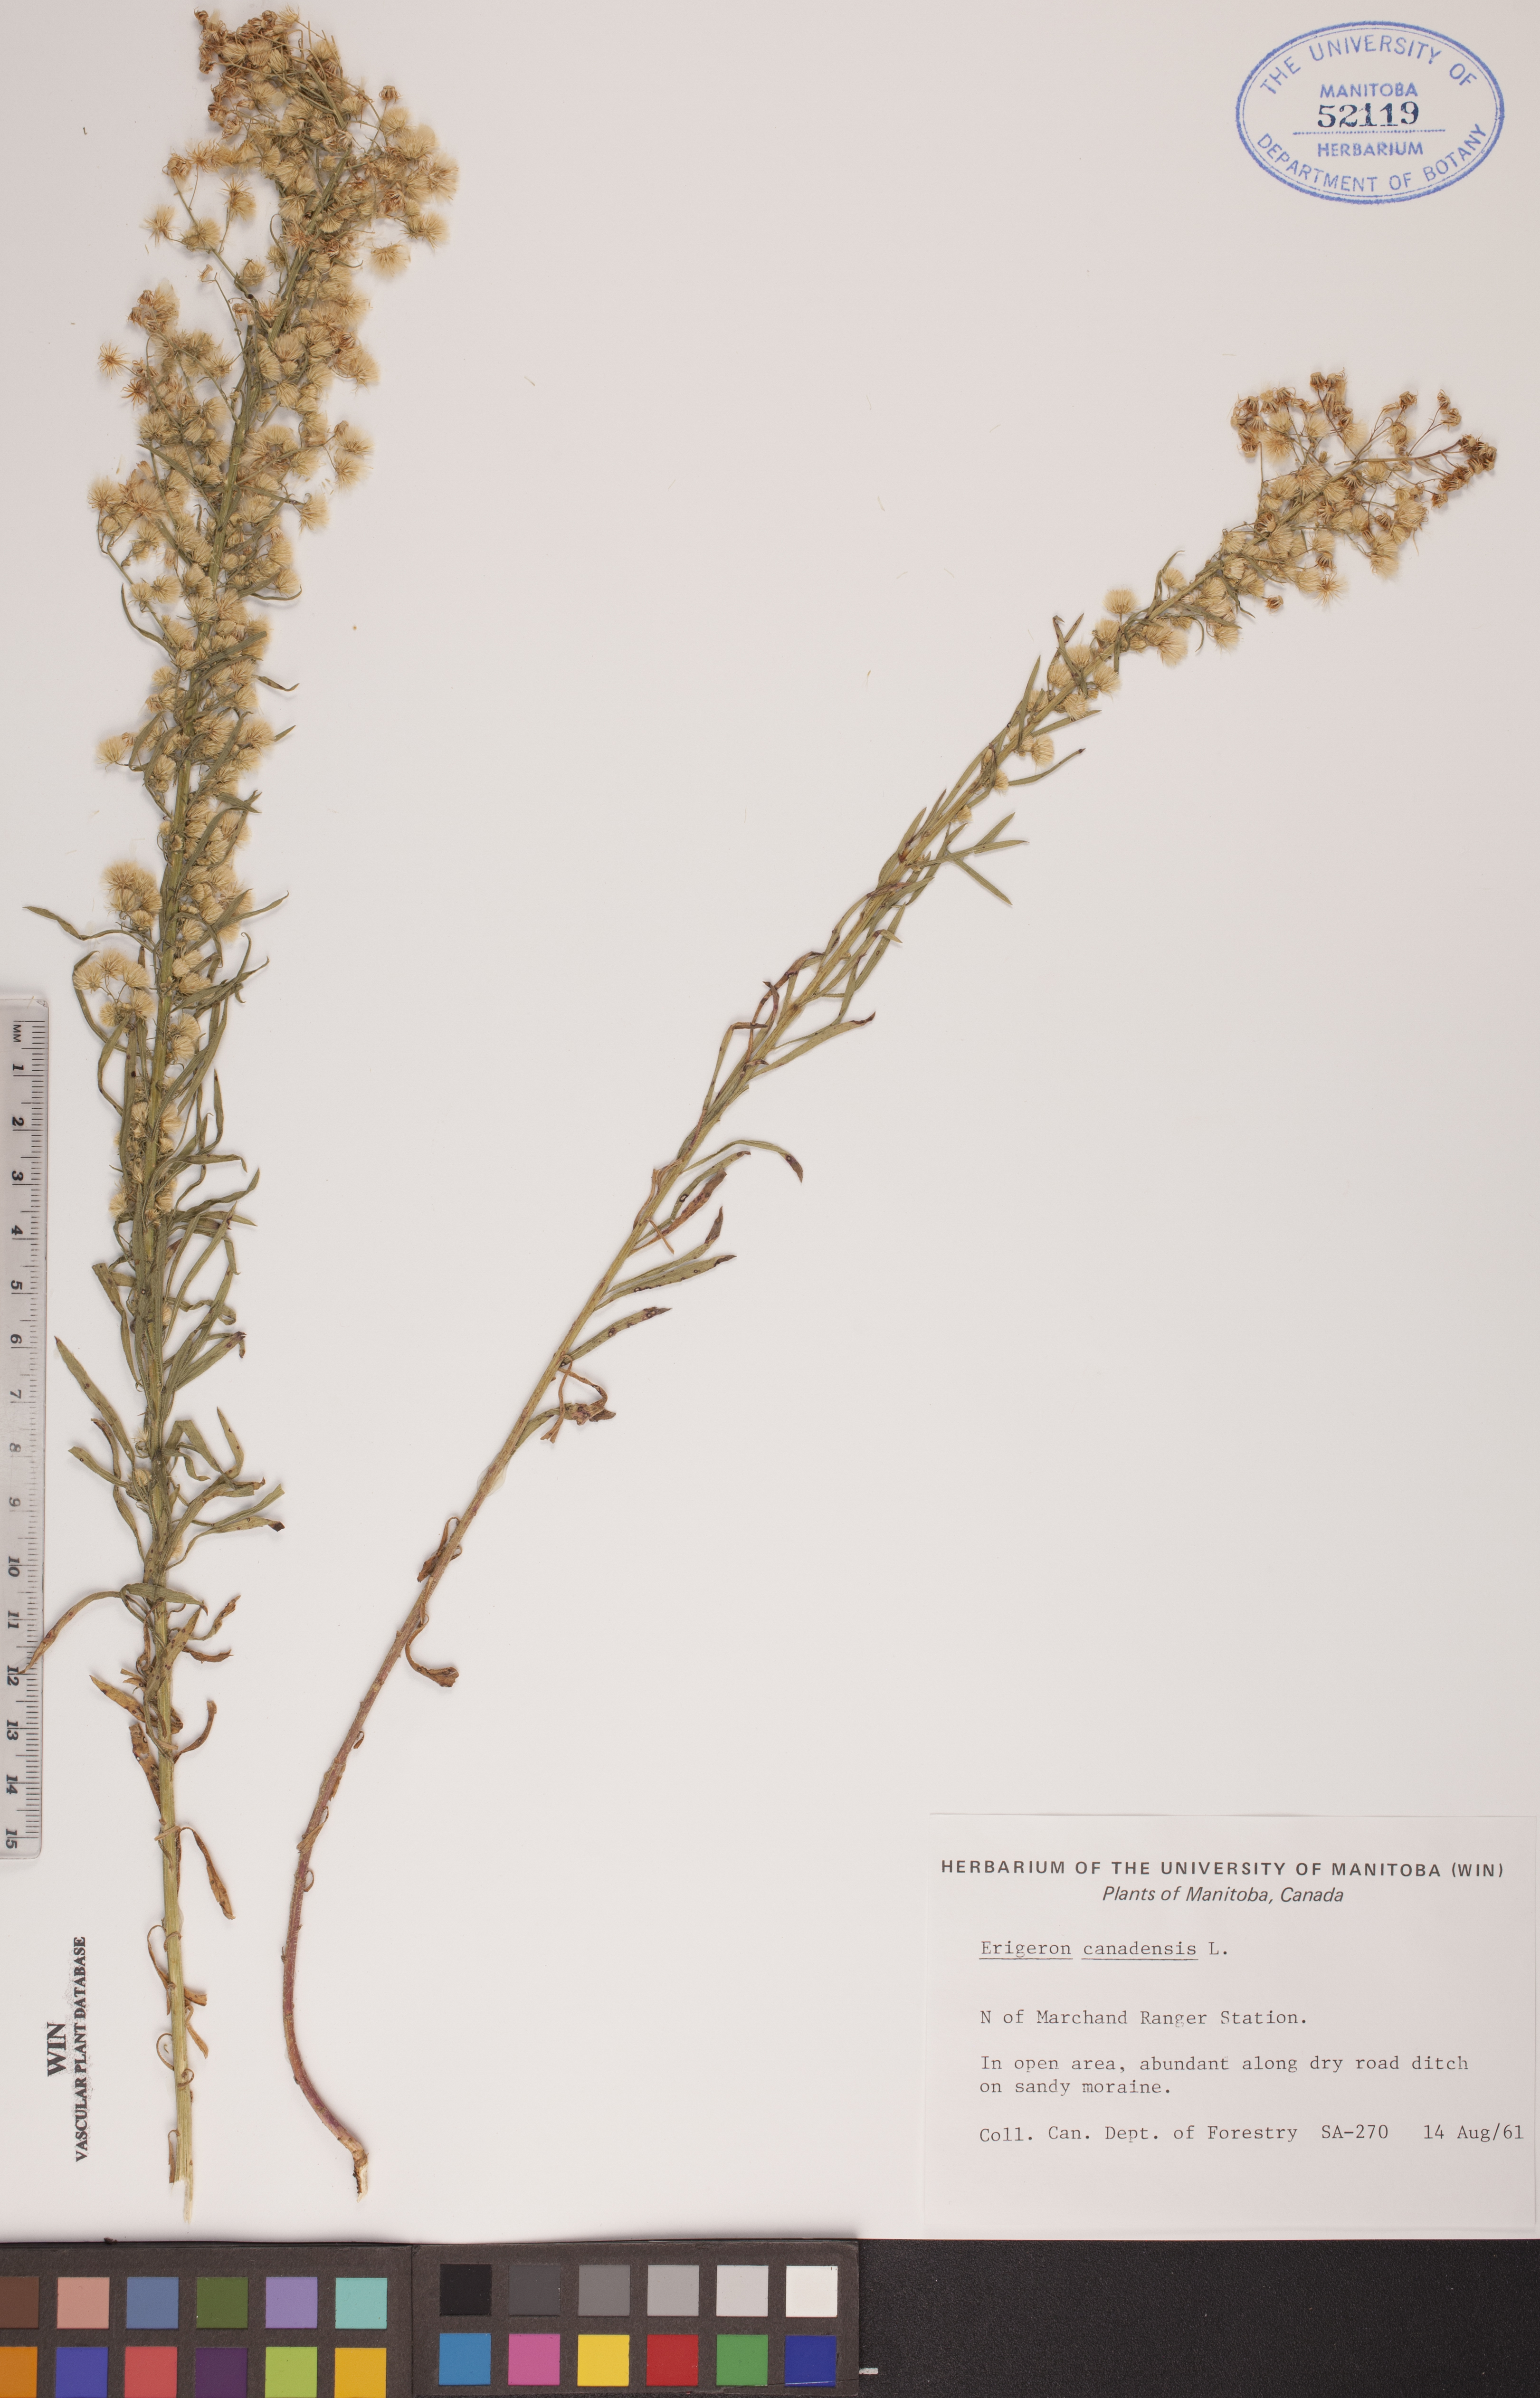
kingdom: Plantae
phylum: Tracheophyta
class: Magnoliopsida
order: Asterales
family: Asteraceae
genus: Erigeron
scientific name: Erigeron canadensis
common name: Canadian fleabane
